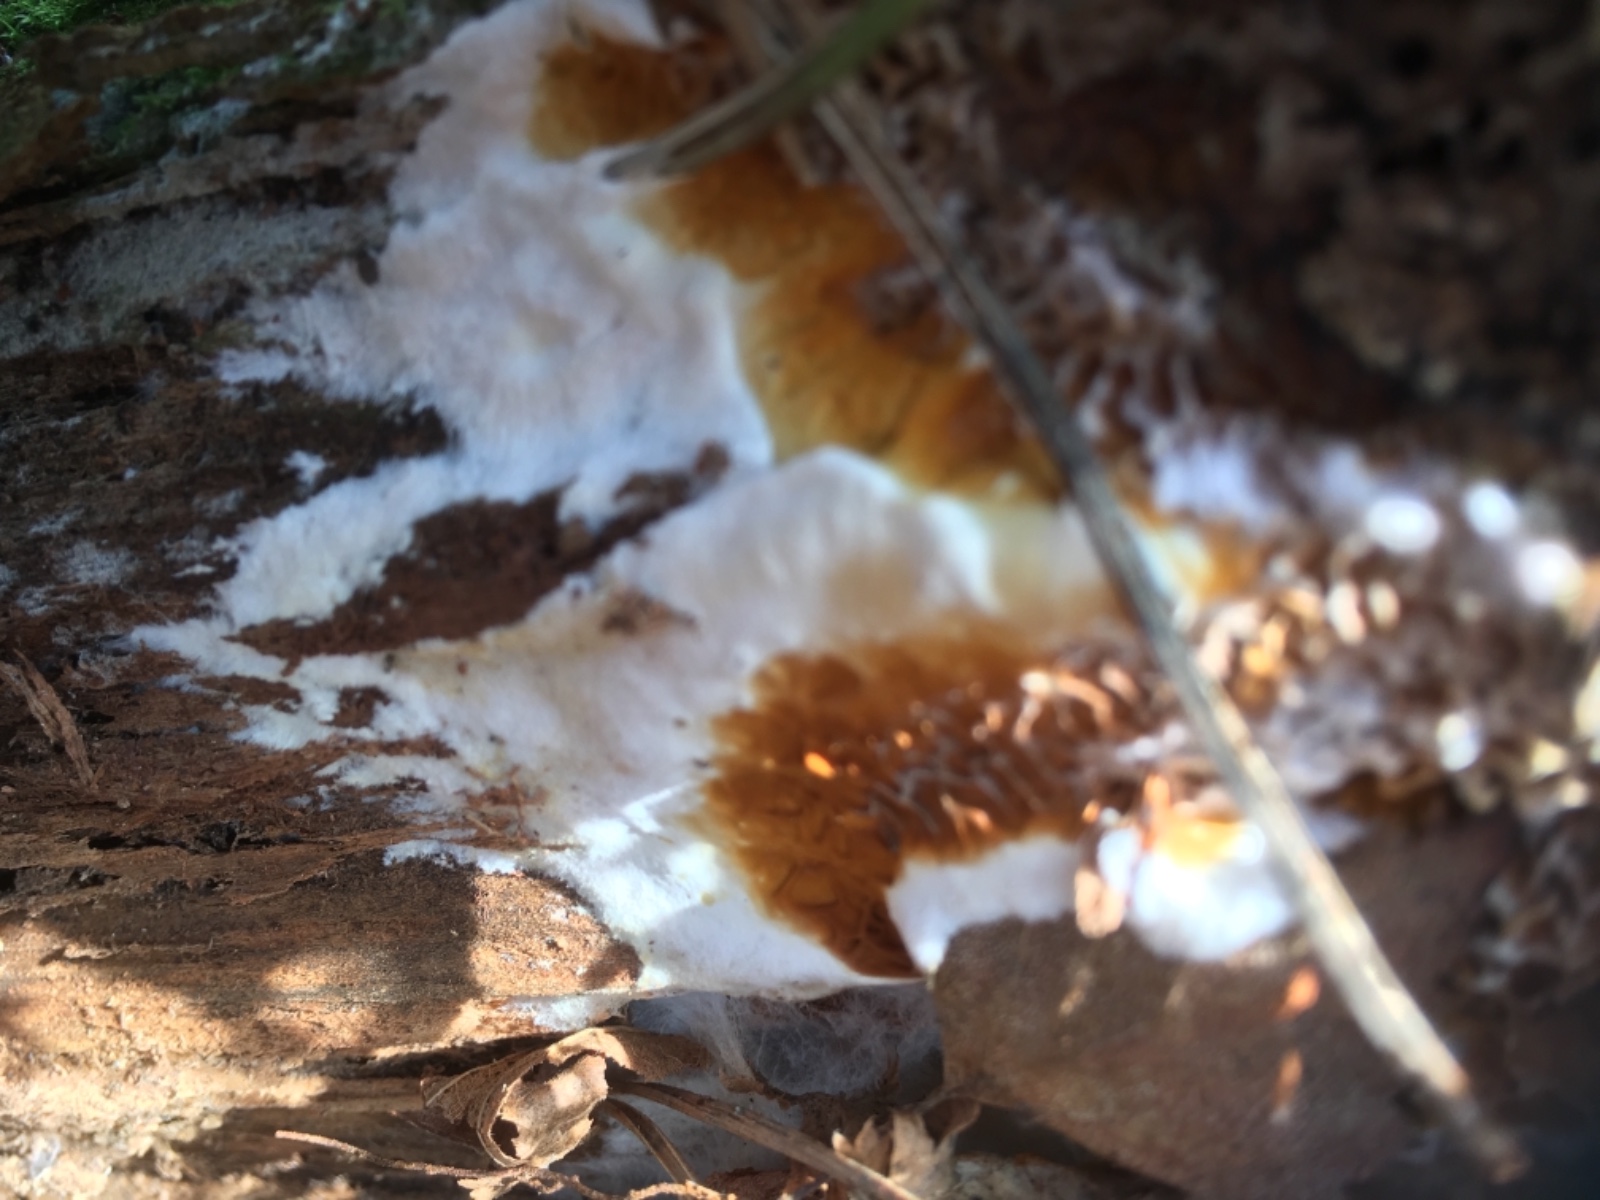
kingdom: Fungi
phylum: Basidiomycota
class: Agaricomycetes
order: Boletales
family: Serpulaceae
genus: Serpula
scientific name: Serpula himantioides
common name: tyndkødet hussvamp
